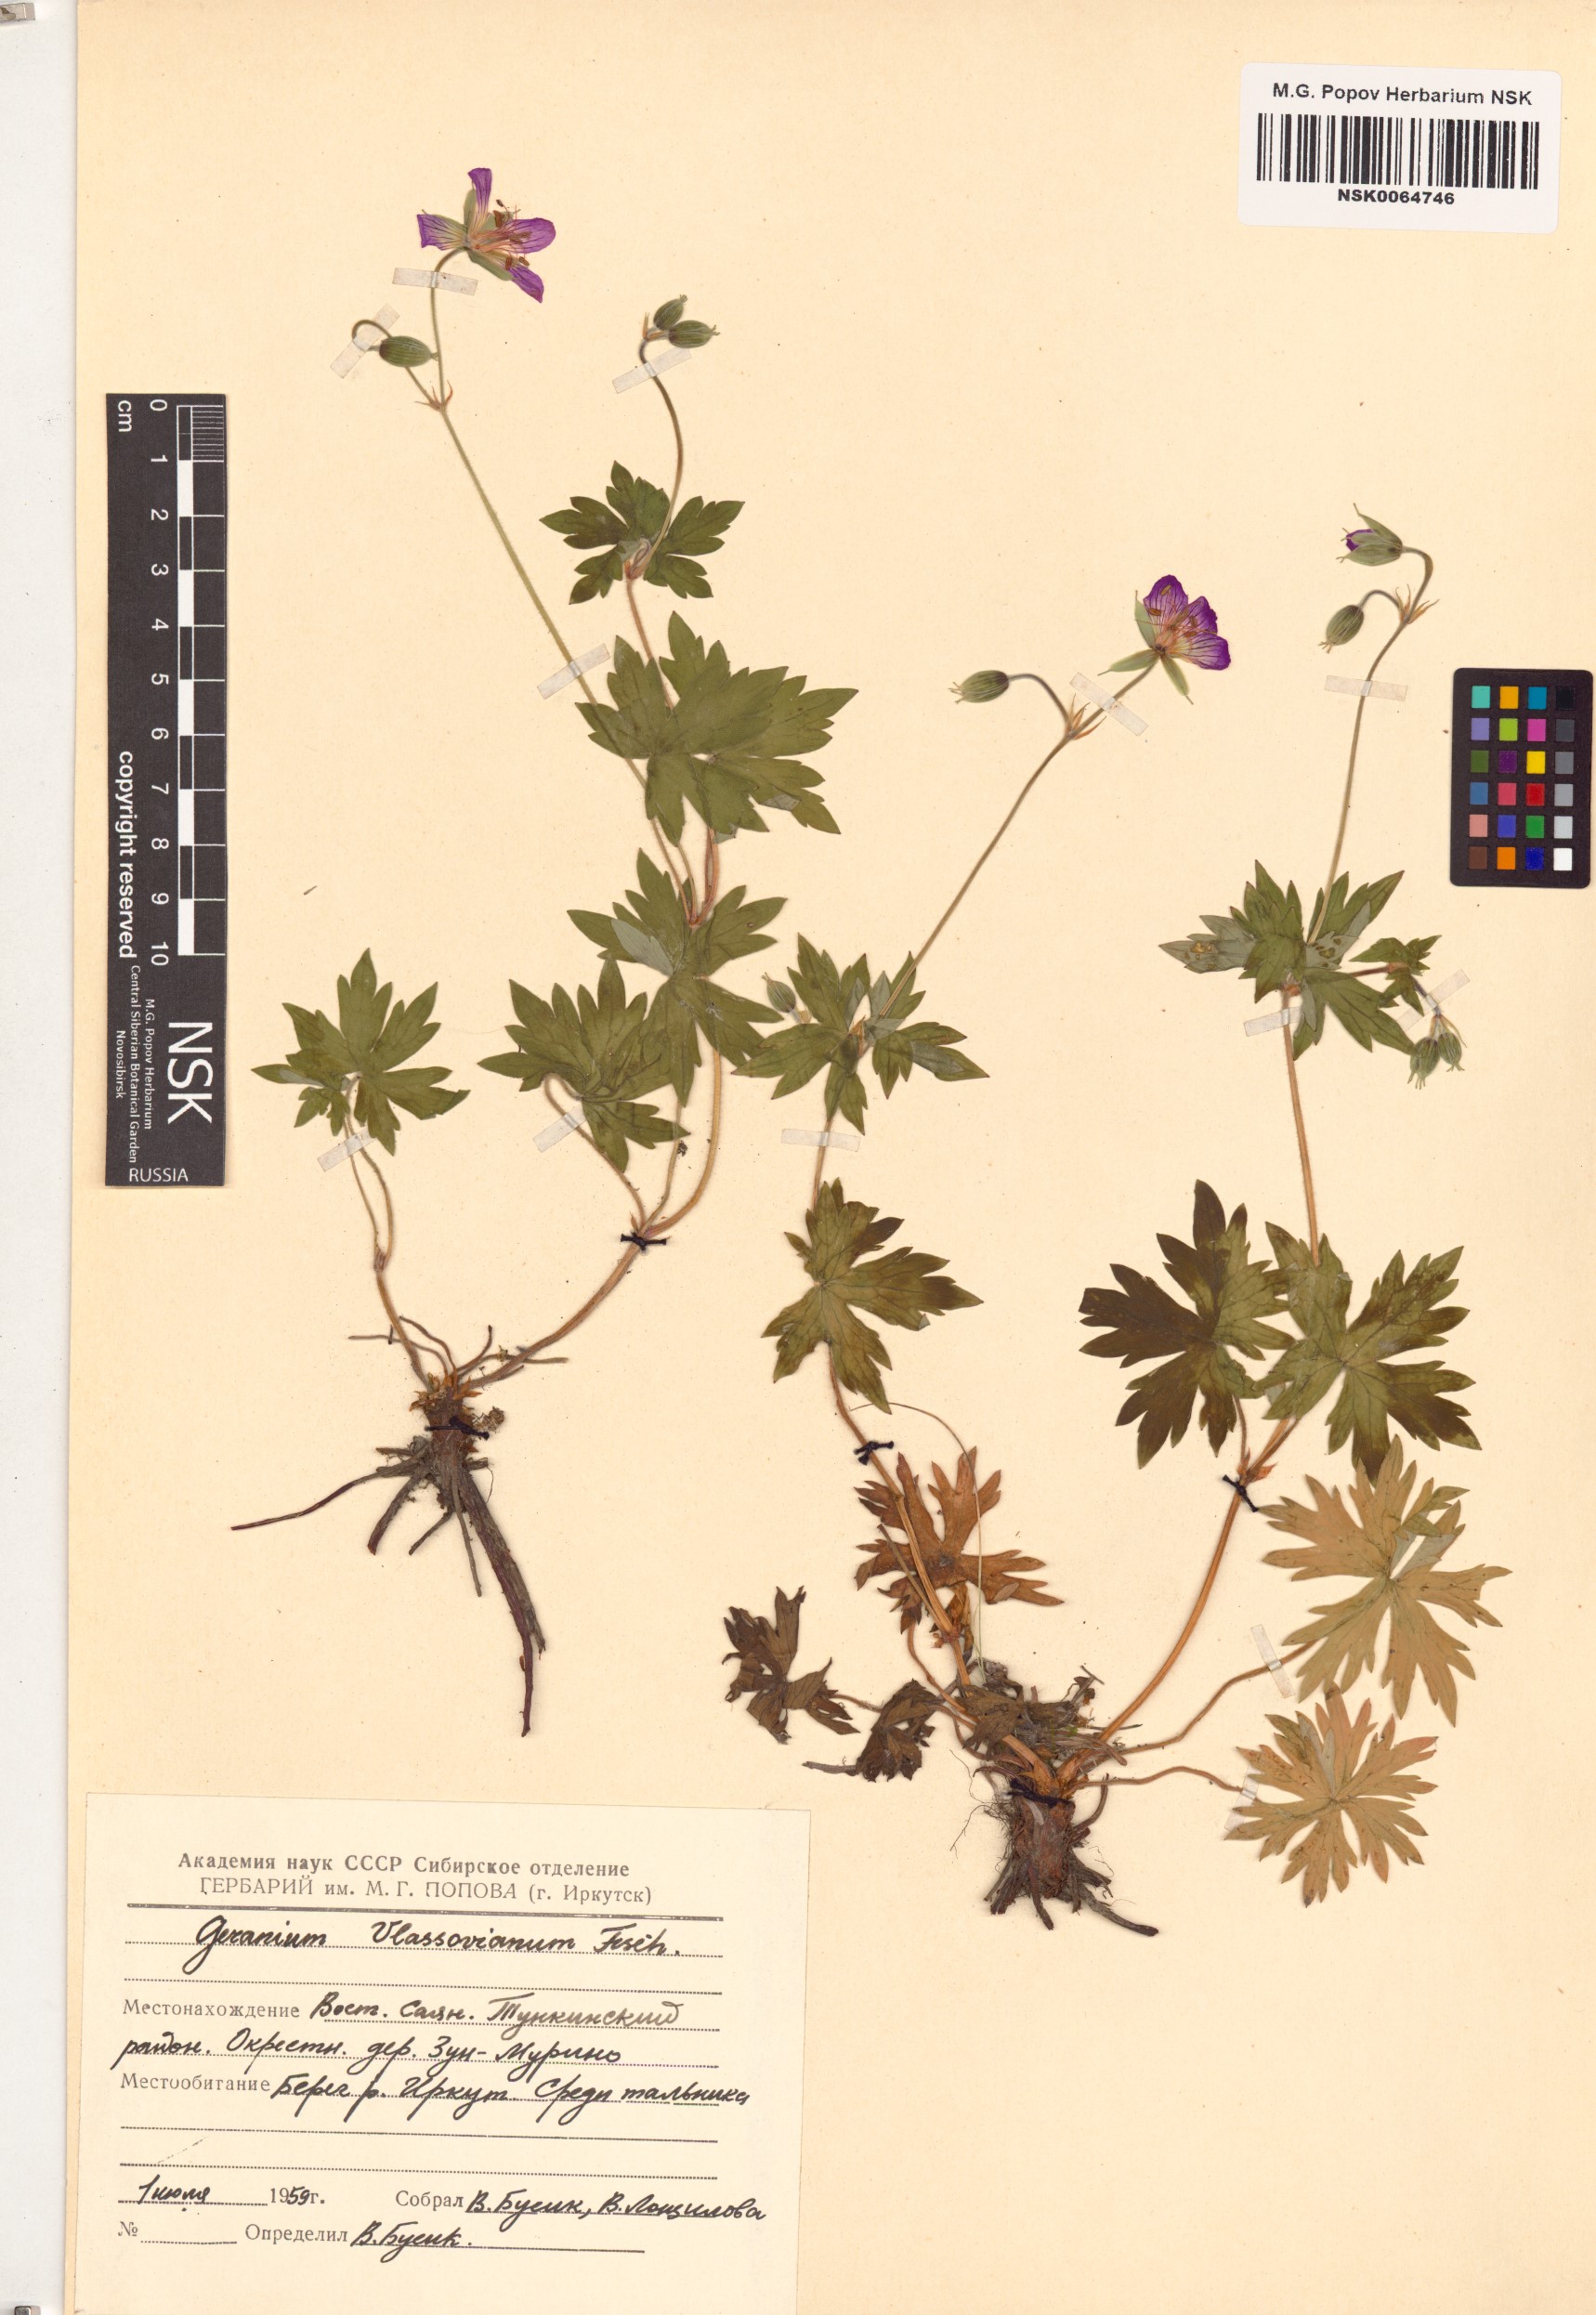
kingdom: Plantae
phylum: Tracheophyta
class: Magnoliopsida
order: Geraniales
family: Geraniaceae
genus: Geranium
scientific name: Geranium wlassovianum
